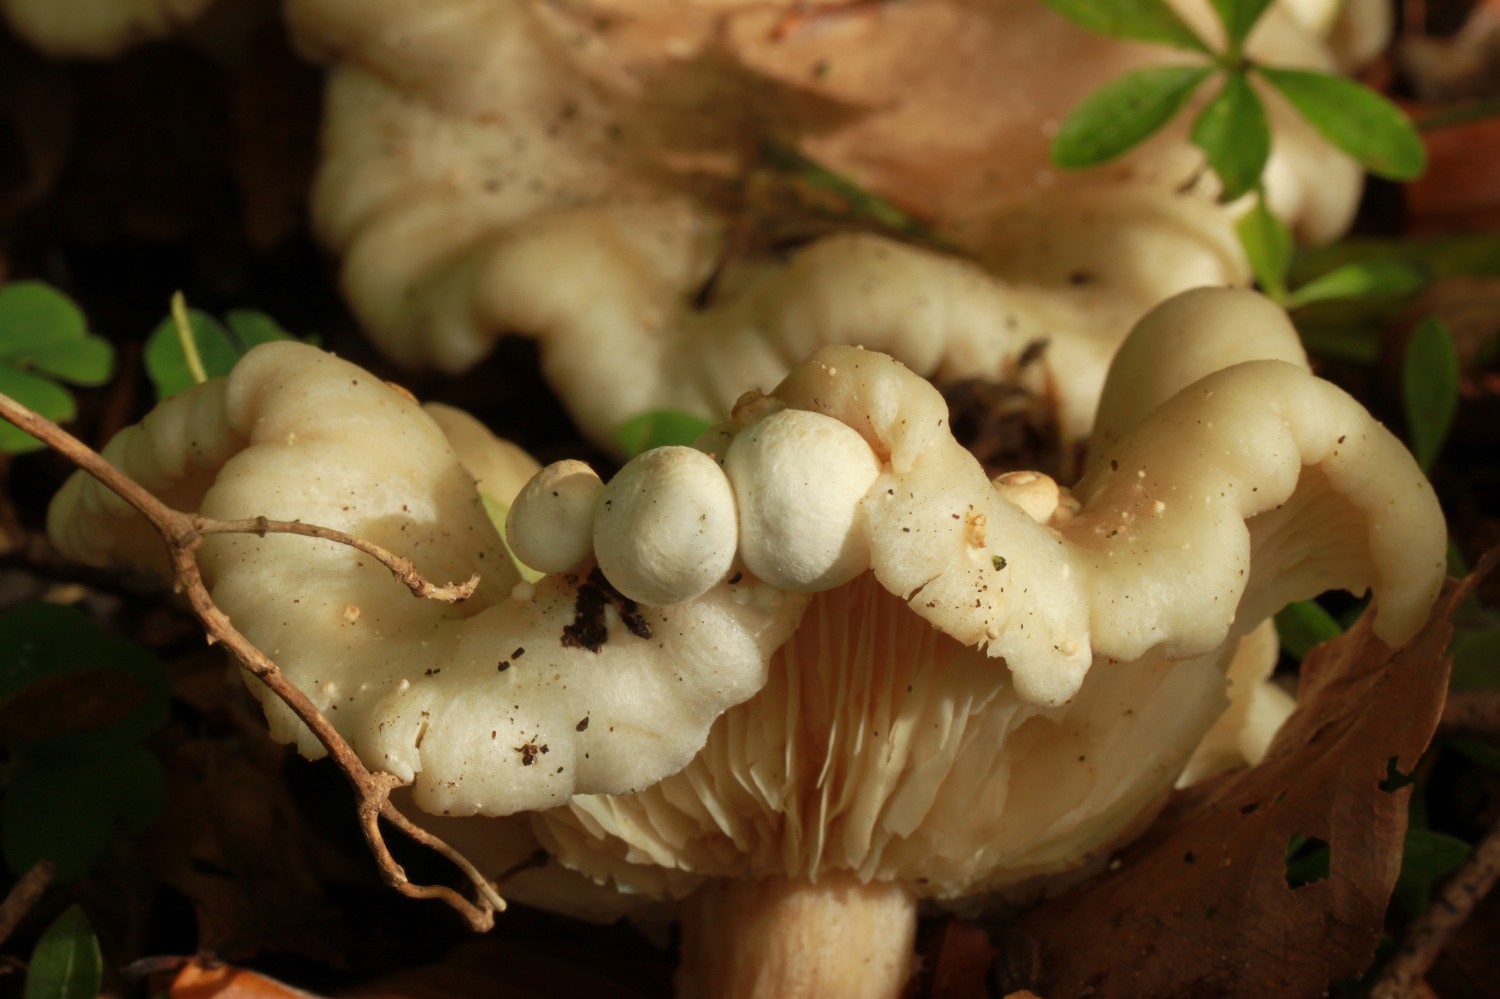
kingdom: Fungi
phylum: Basidiomycota
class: Agaricomycetes
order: Agaricales
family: Pluteaceae
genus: Volvariella
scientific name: Volvariella surrecta
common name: snyltende posesvamp
